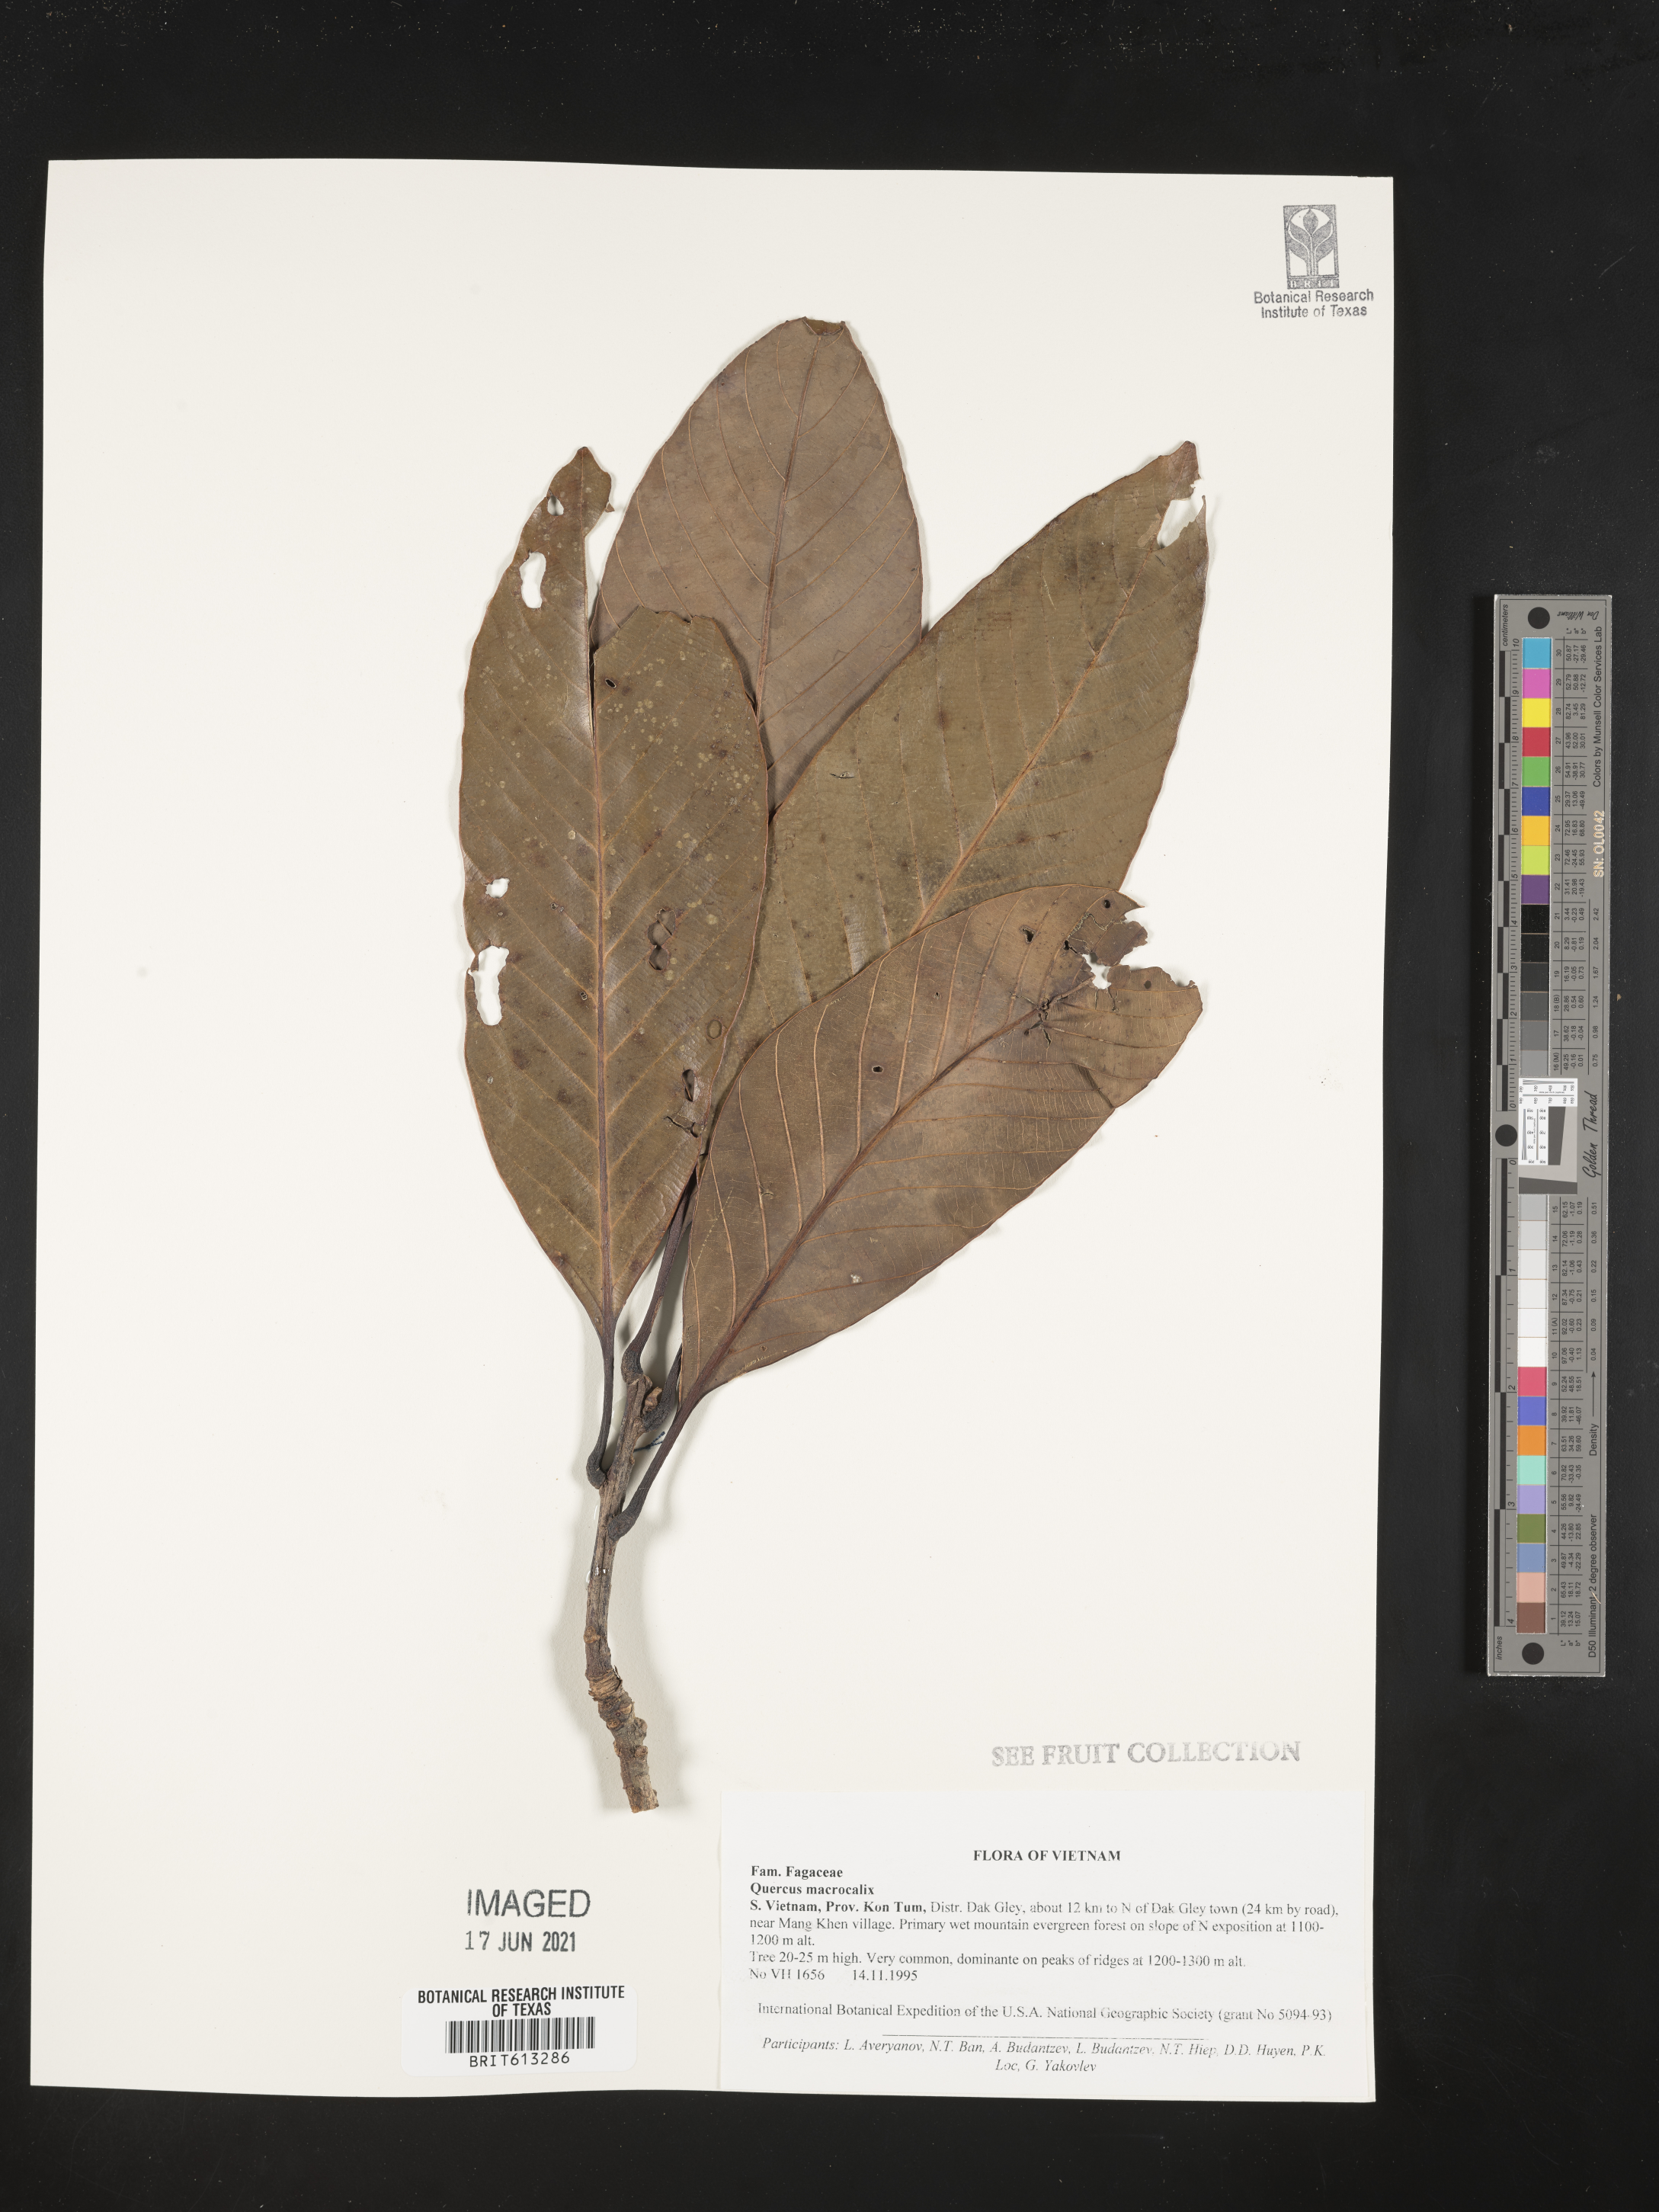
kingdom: Plantae
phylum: Tracheophyta
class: Magnoliopsida
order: Fagales
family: Fagaceae
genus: Quercus
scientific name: Quercus macrocalyx
